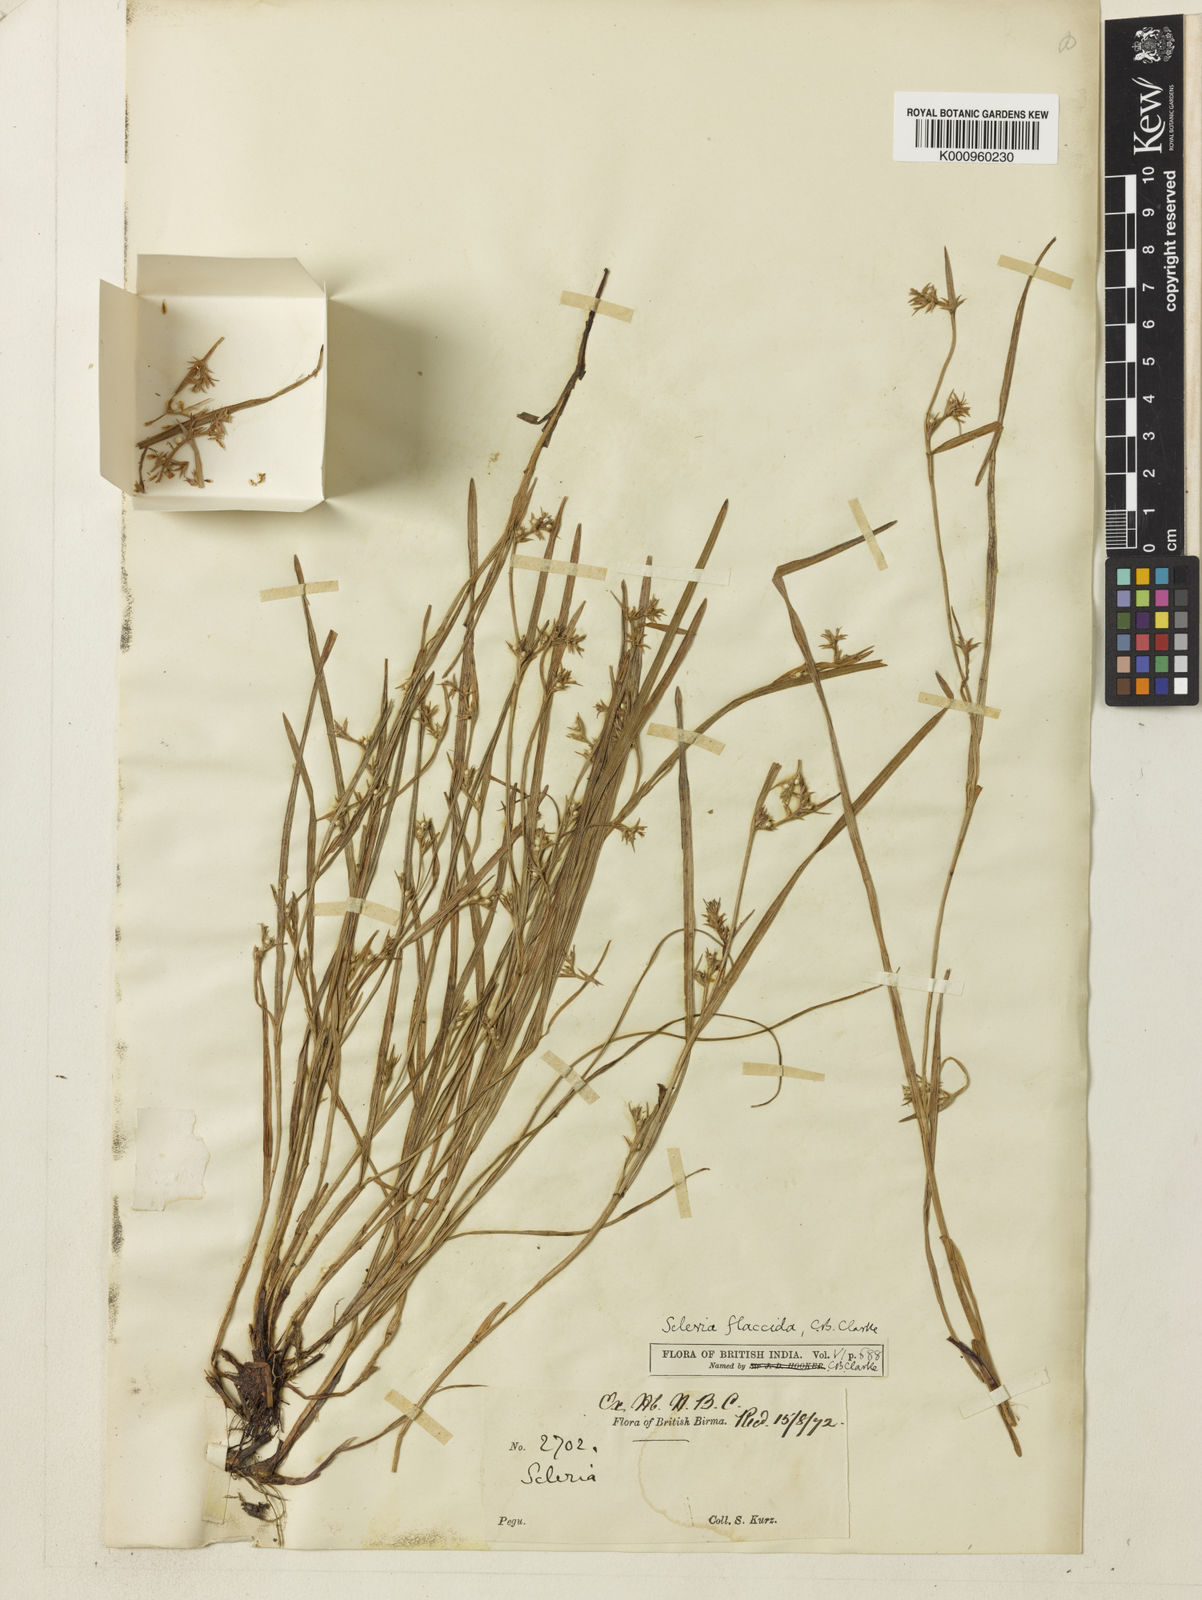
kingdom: Plantae
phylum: Tracheophyta
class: Liliopsida
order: Poales
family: Cyperaceae
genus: Scleria
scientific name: Scleria rugosa
